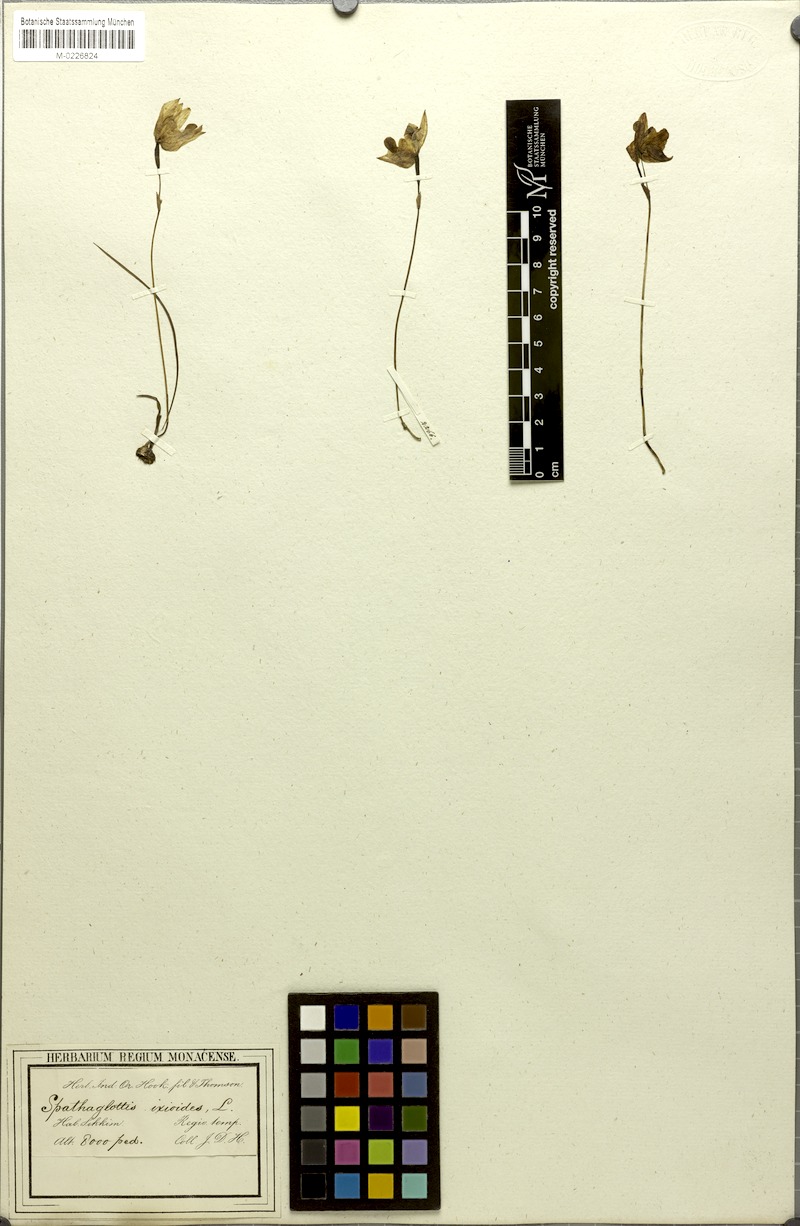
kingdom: Plantae
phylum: Tracheophyta
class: Liliopsida
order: Asparagales
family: Orchidaceae
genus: Spathoglottis
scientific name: Spathoglottis ixioides
